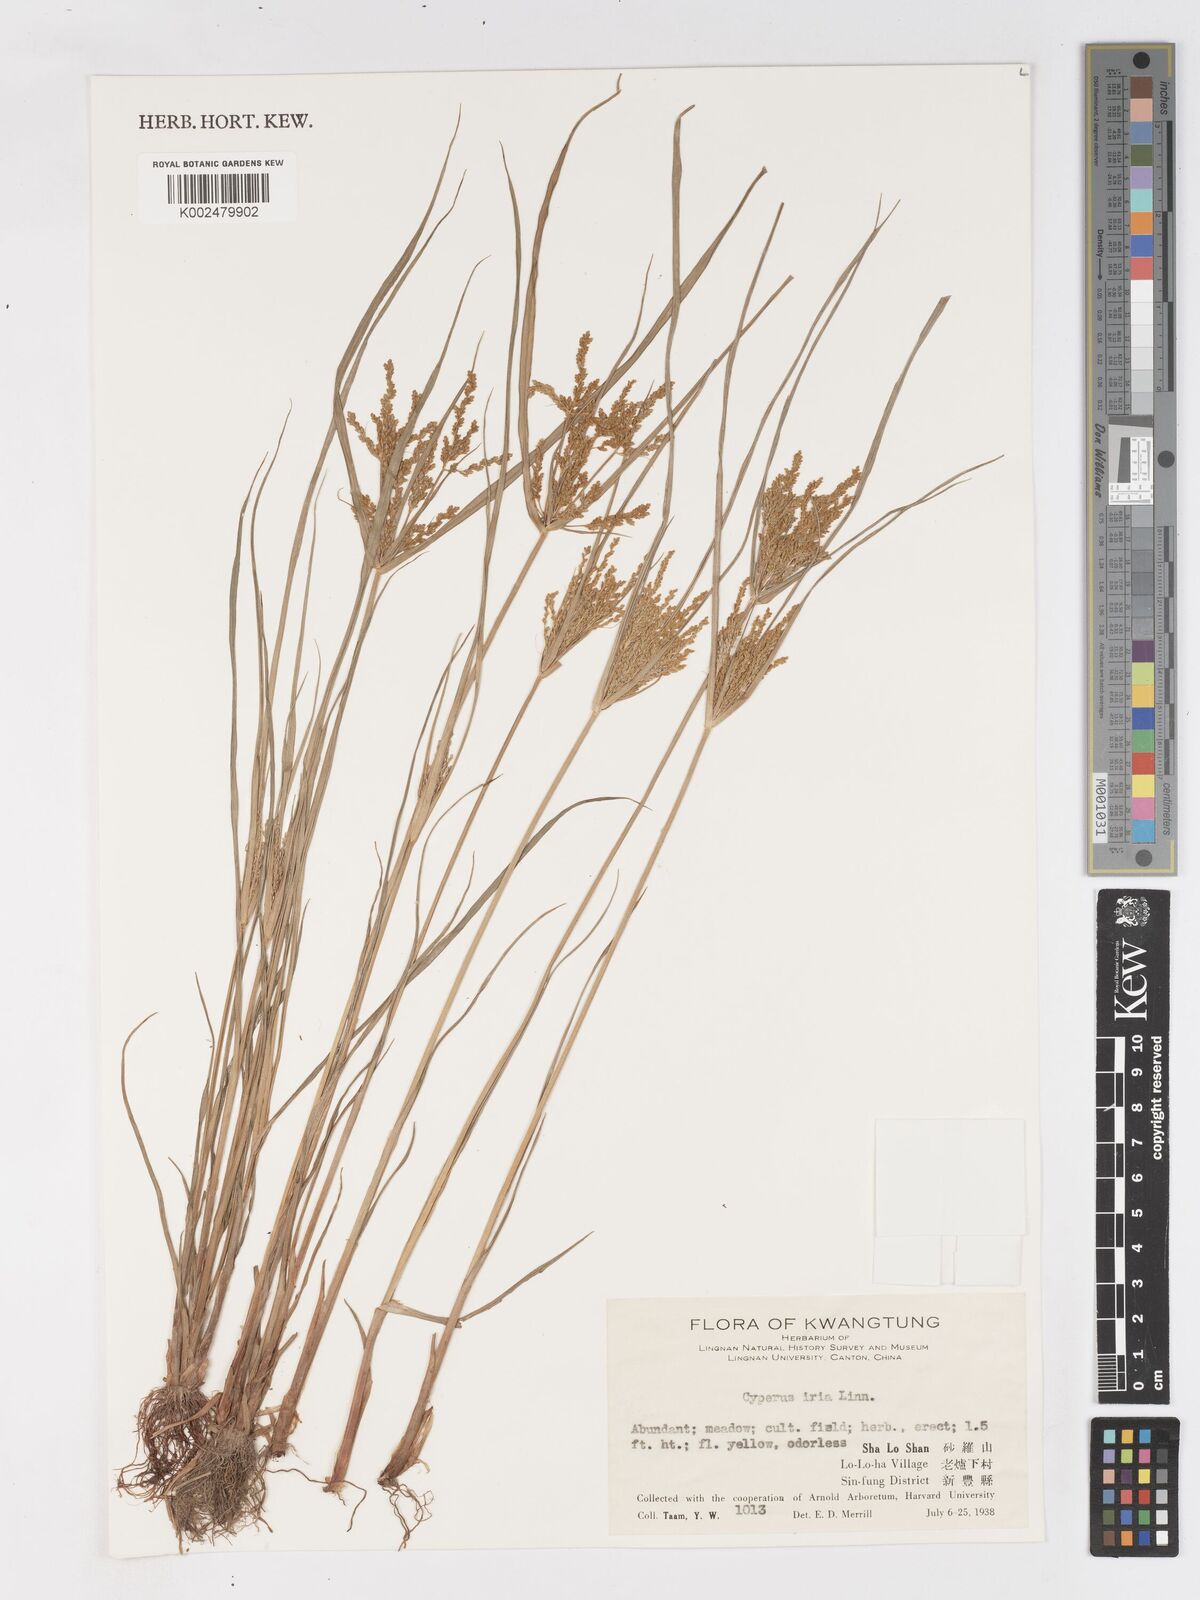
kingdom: Plantae
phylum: Tracheophyta
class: Liliopsida
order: Poales
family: Cyperaceae
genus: Cyperus
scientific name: Cyperus iria
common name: Ricefield flatsedge
